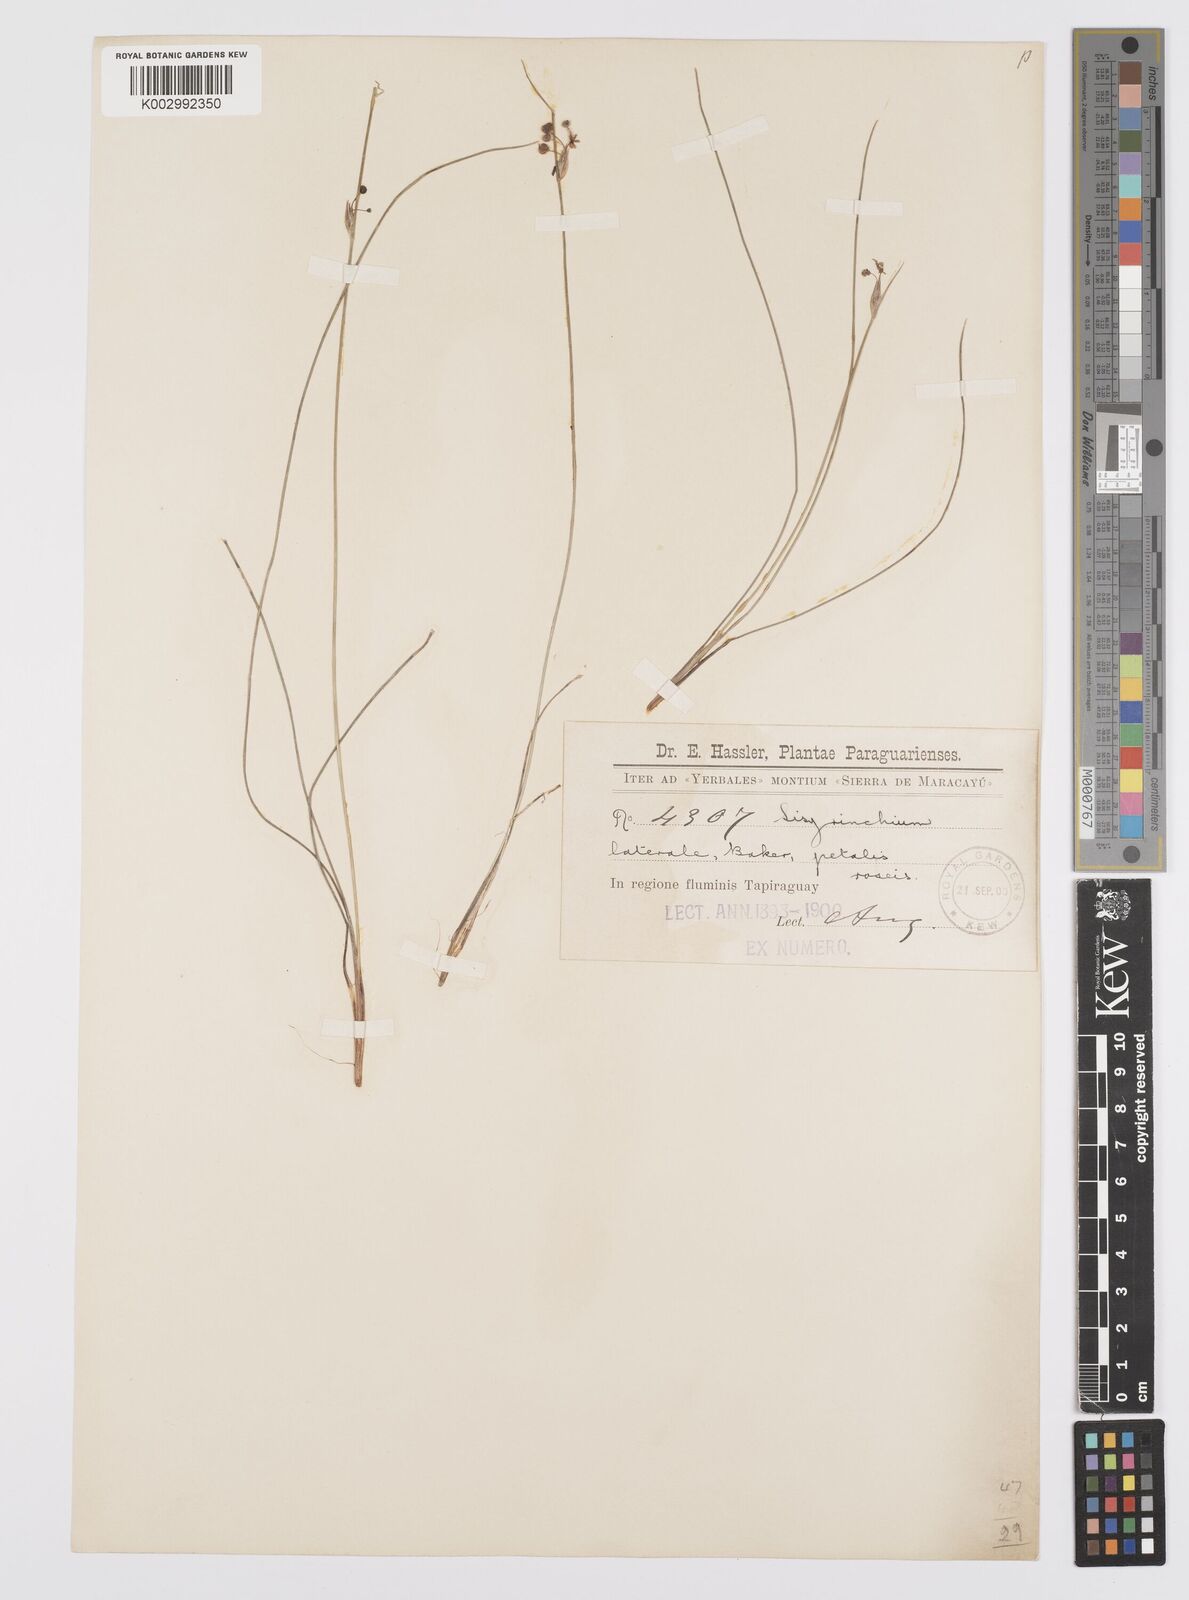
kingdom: Plantae
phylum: Tracheophyta
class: Liliopsida
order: Asparagales
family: Iridaceae
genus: Sisyrinchium
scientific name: Sisyrinchium laterale
